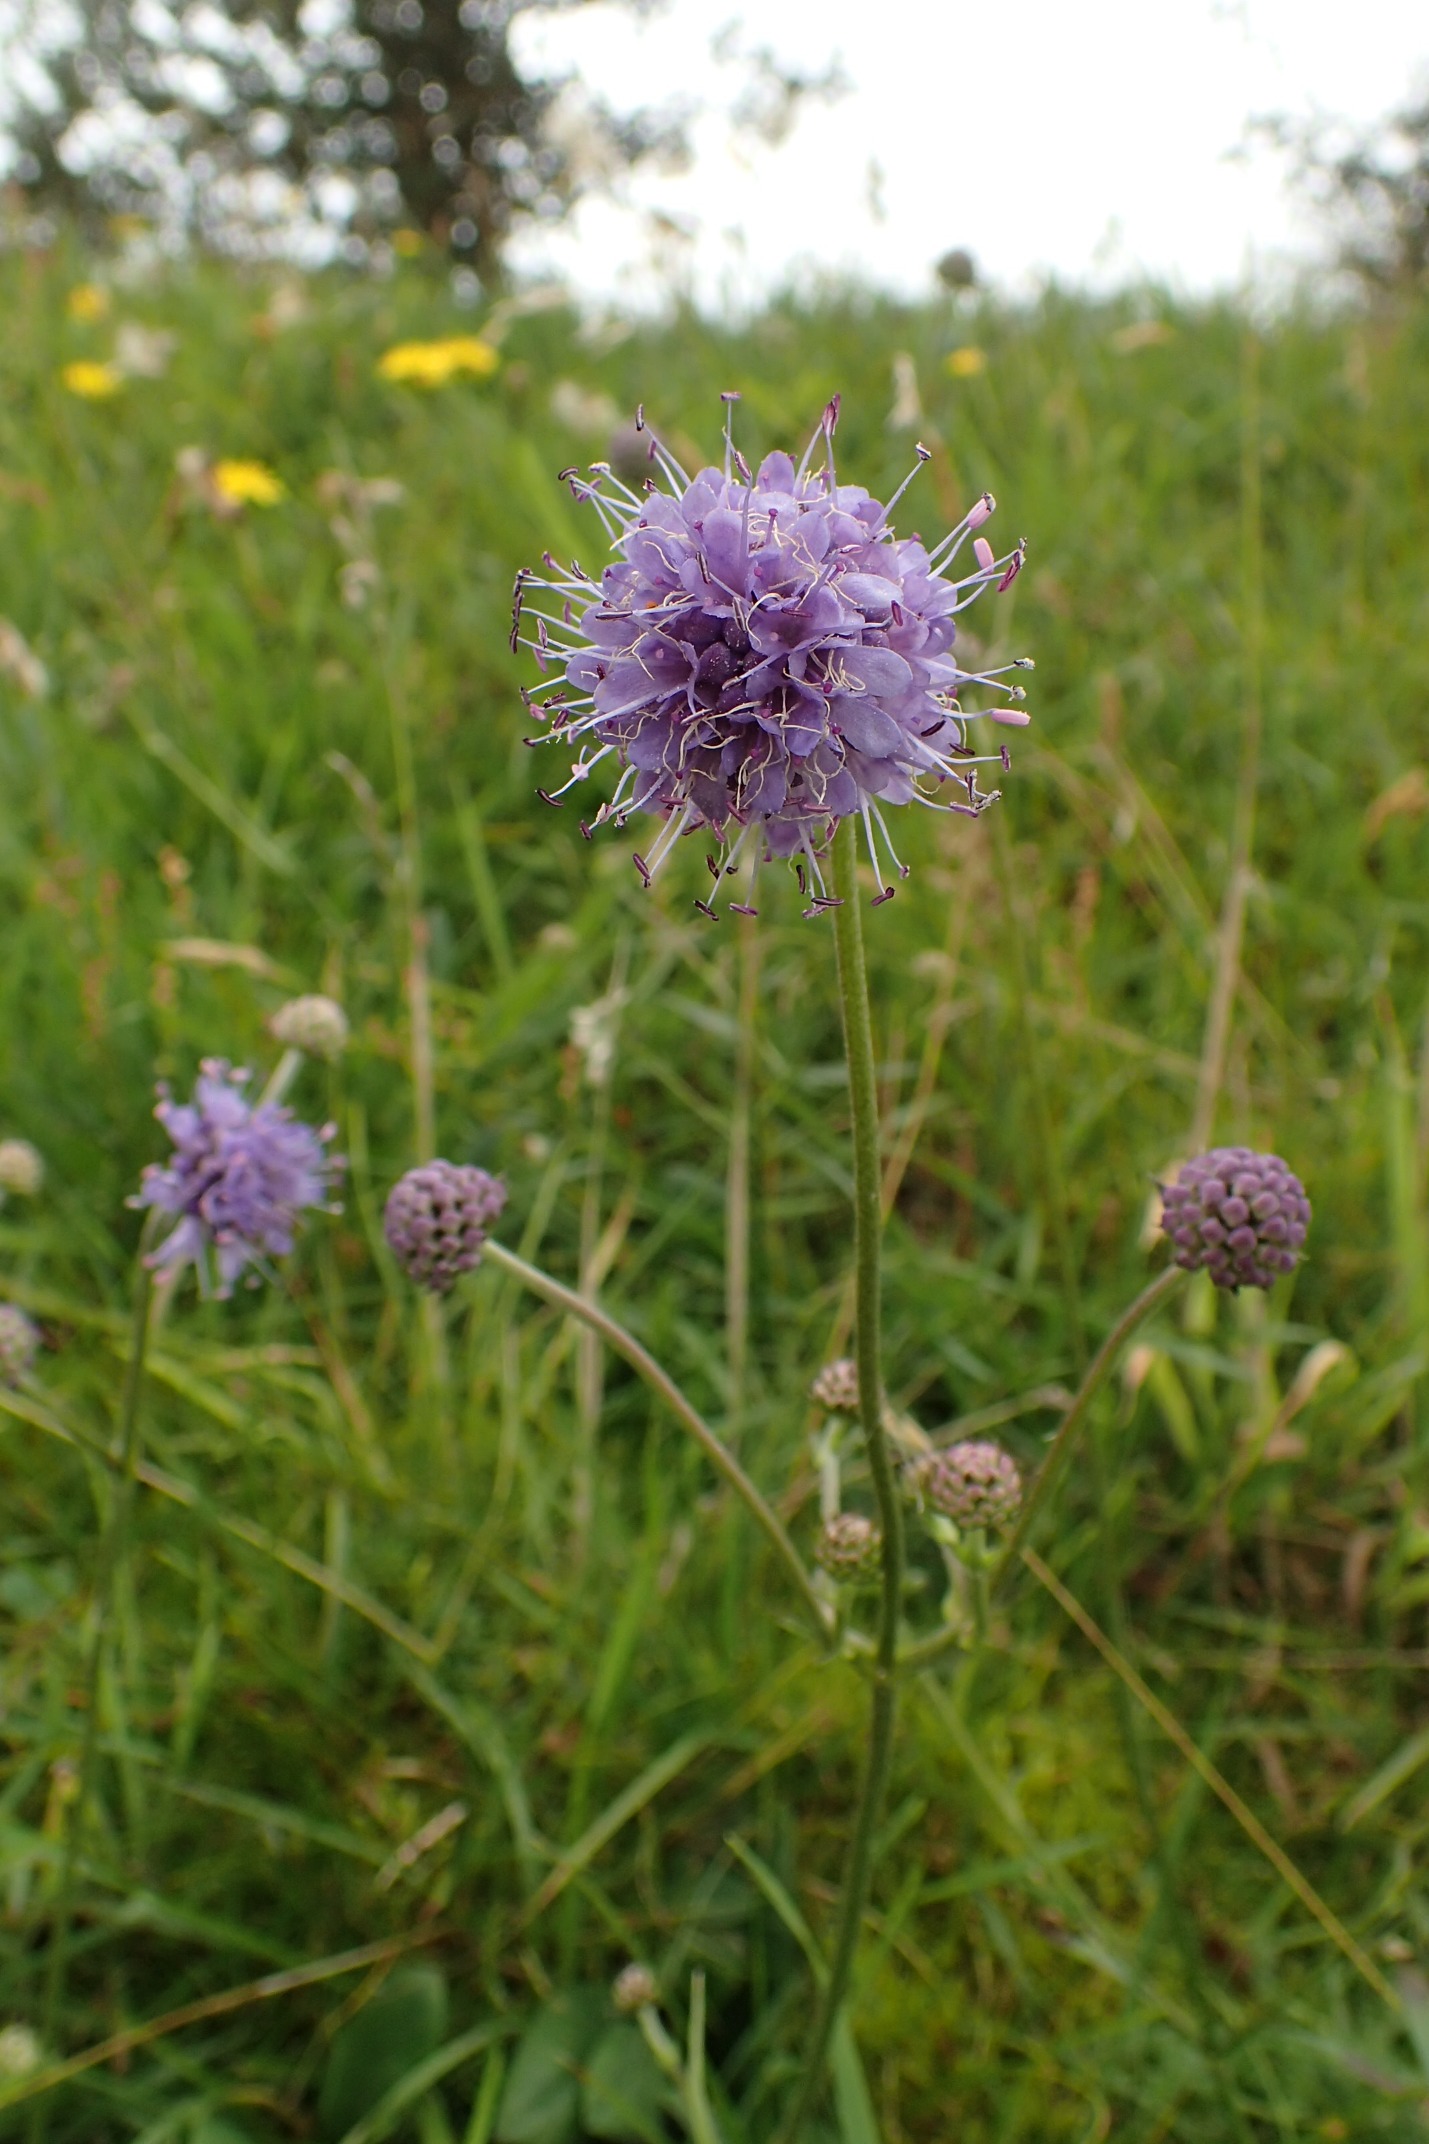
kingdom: Plantae
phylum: Tracheophyta
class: Magnoliopsida
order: Dipsacales
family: Caprifoliaceae
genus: Succisa
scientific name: Succisa pratensis
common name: Djævelsbid
